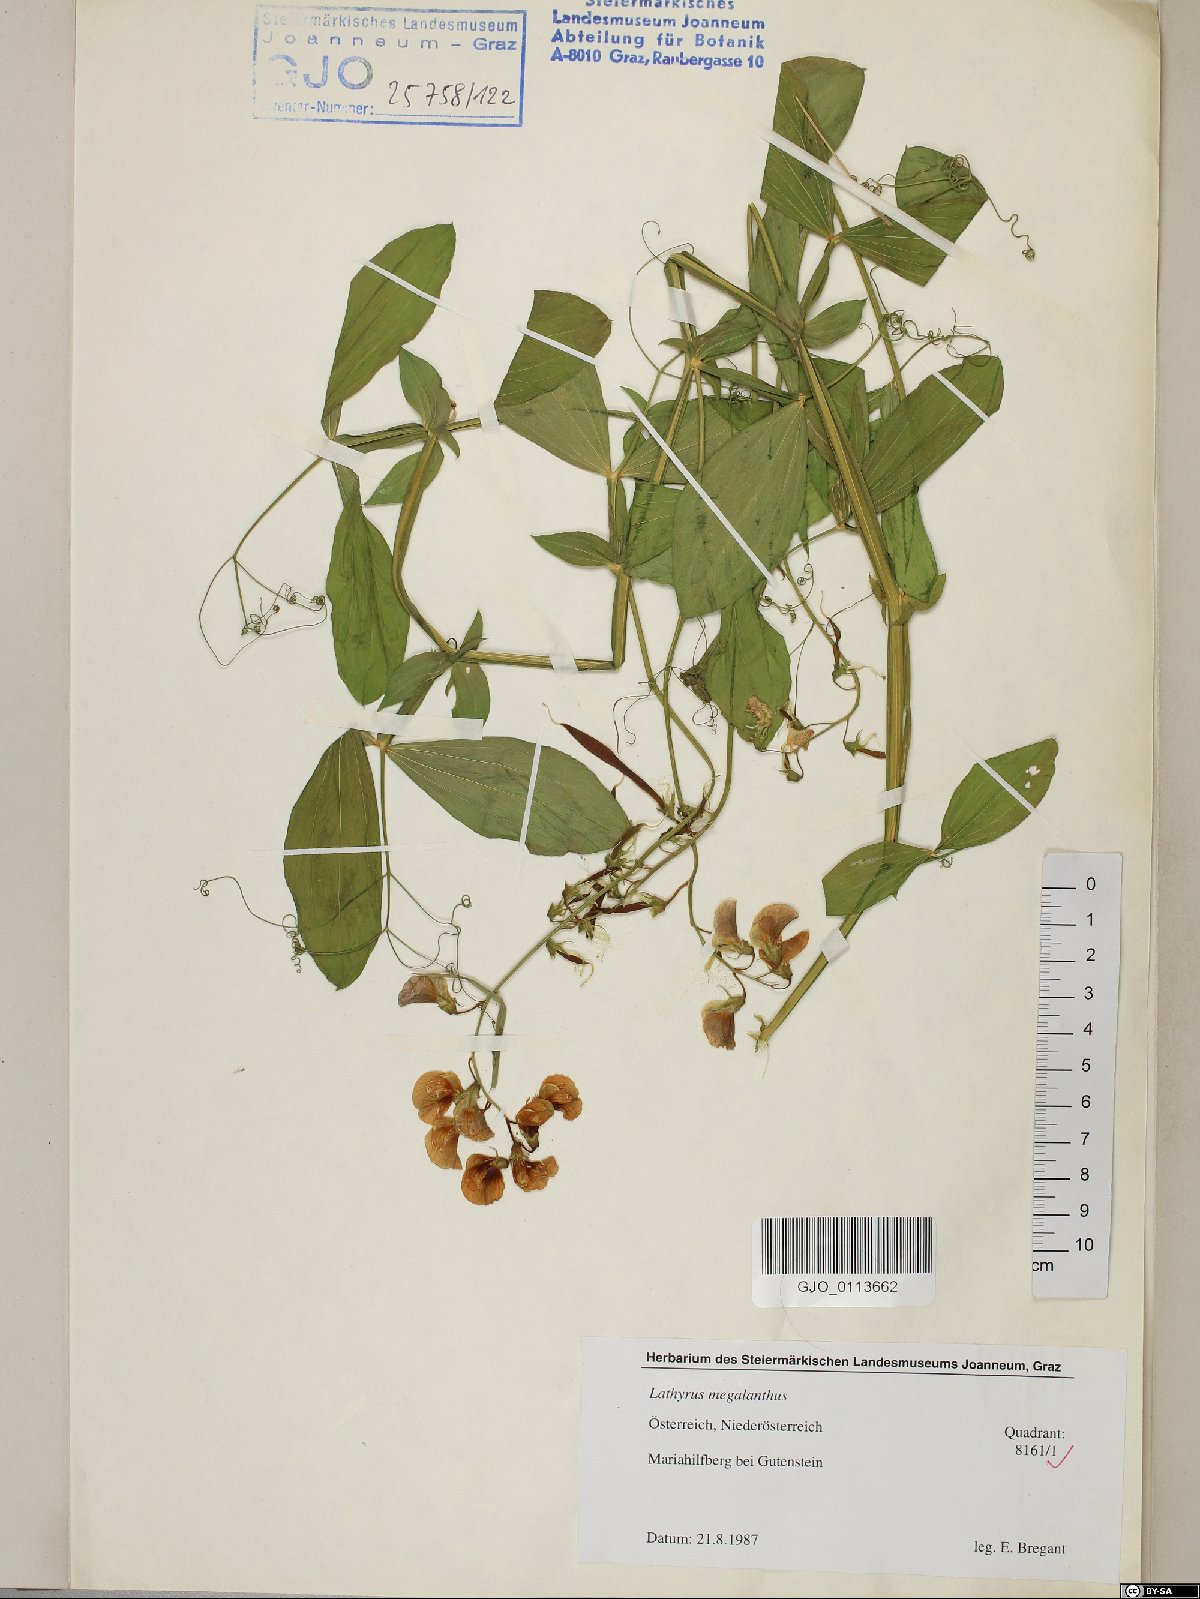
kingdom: Plantae
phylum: Tracheophyta
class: Magnoliopsida
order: Fabales
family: Fabaceae
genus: Lathyrus
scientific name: Lathyrus latifolius
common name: Perennial pea
